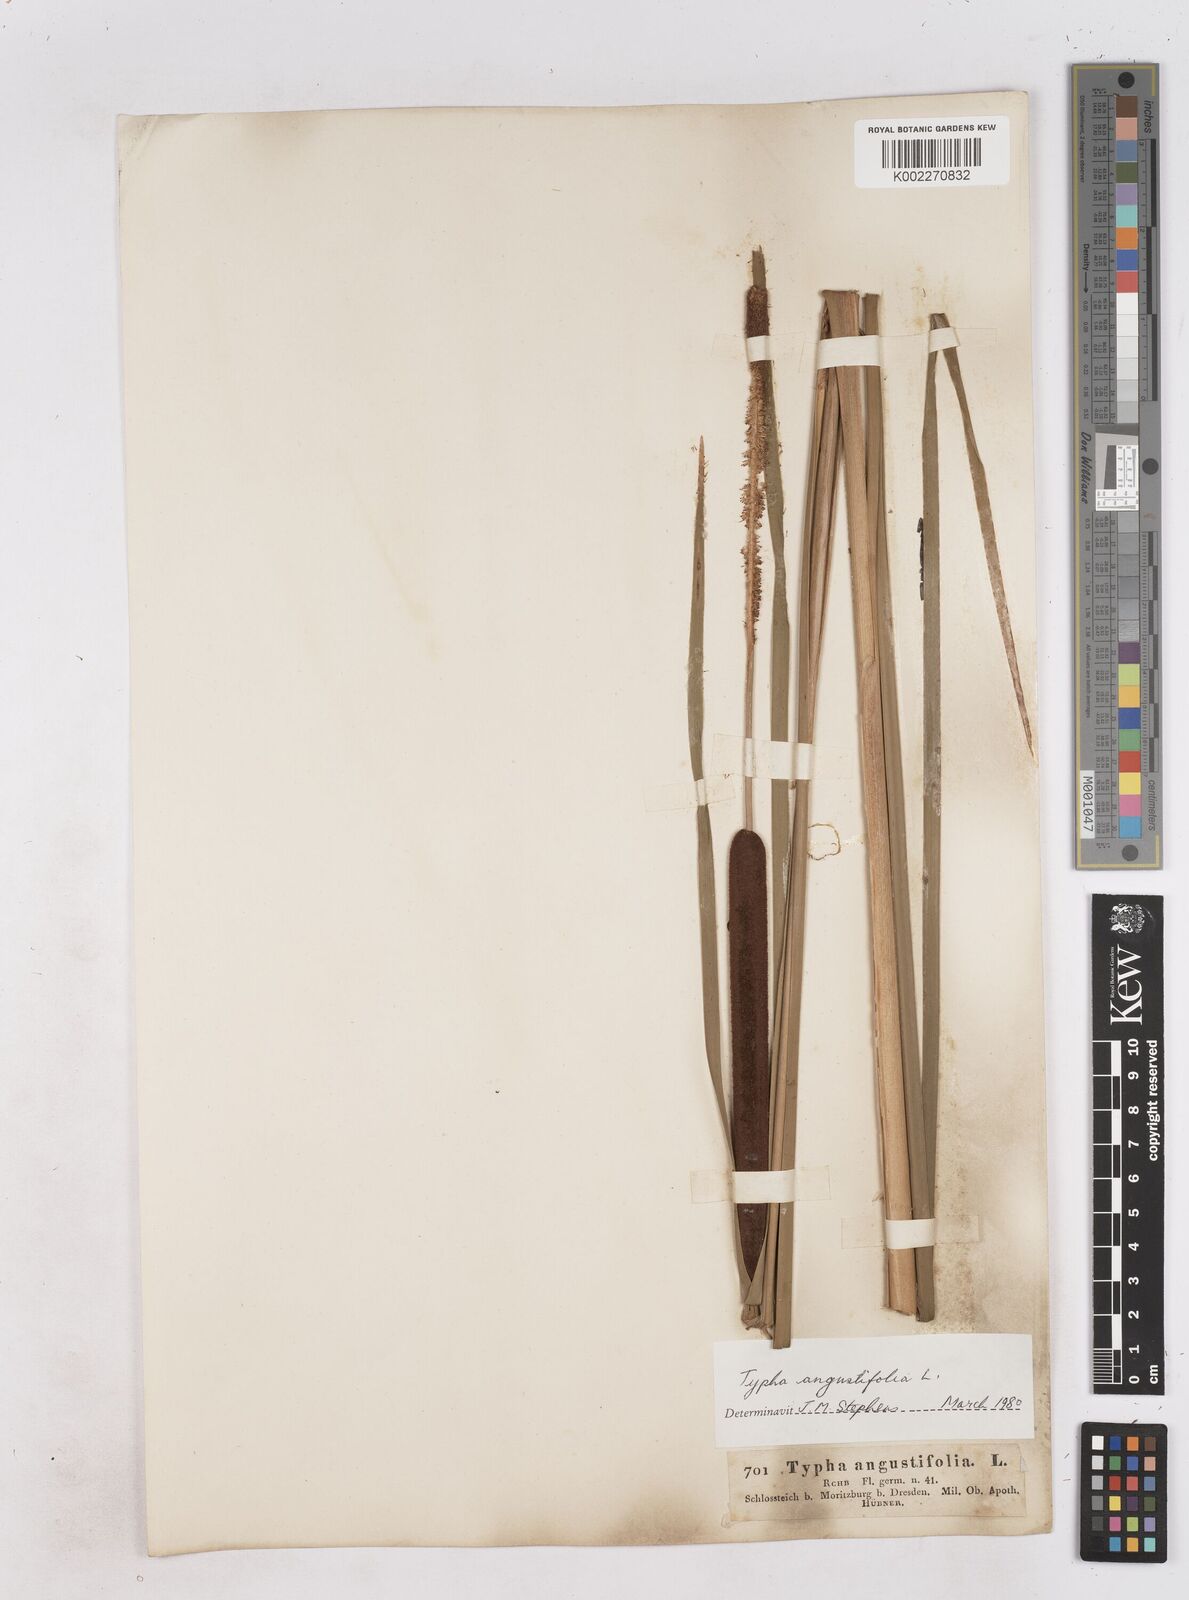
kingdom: Plantae
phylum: Tracheophyta
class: Liliopsida
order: Poales
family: Typhaceae
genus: Typha
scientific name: Typha angustifolia
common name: Lesser bulrush
